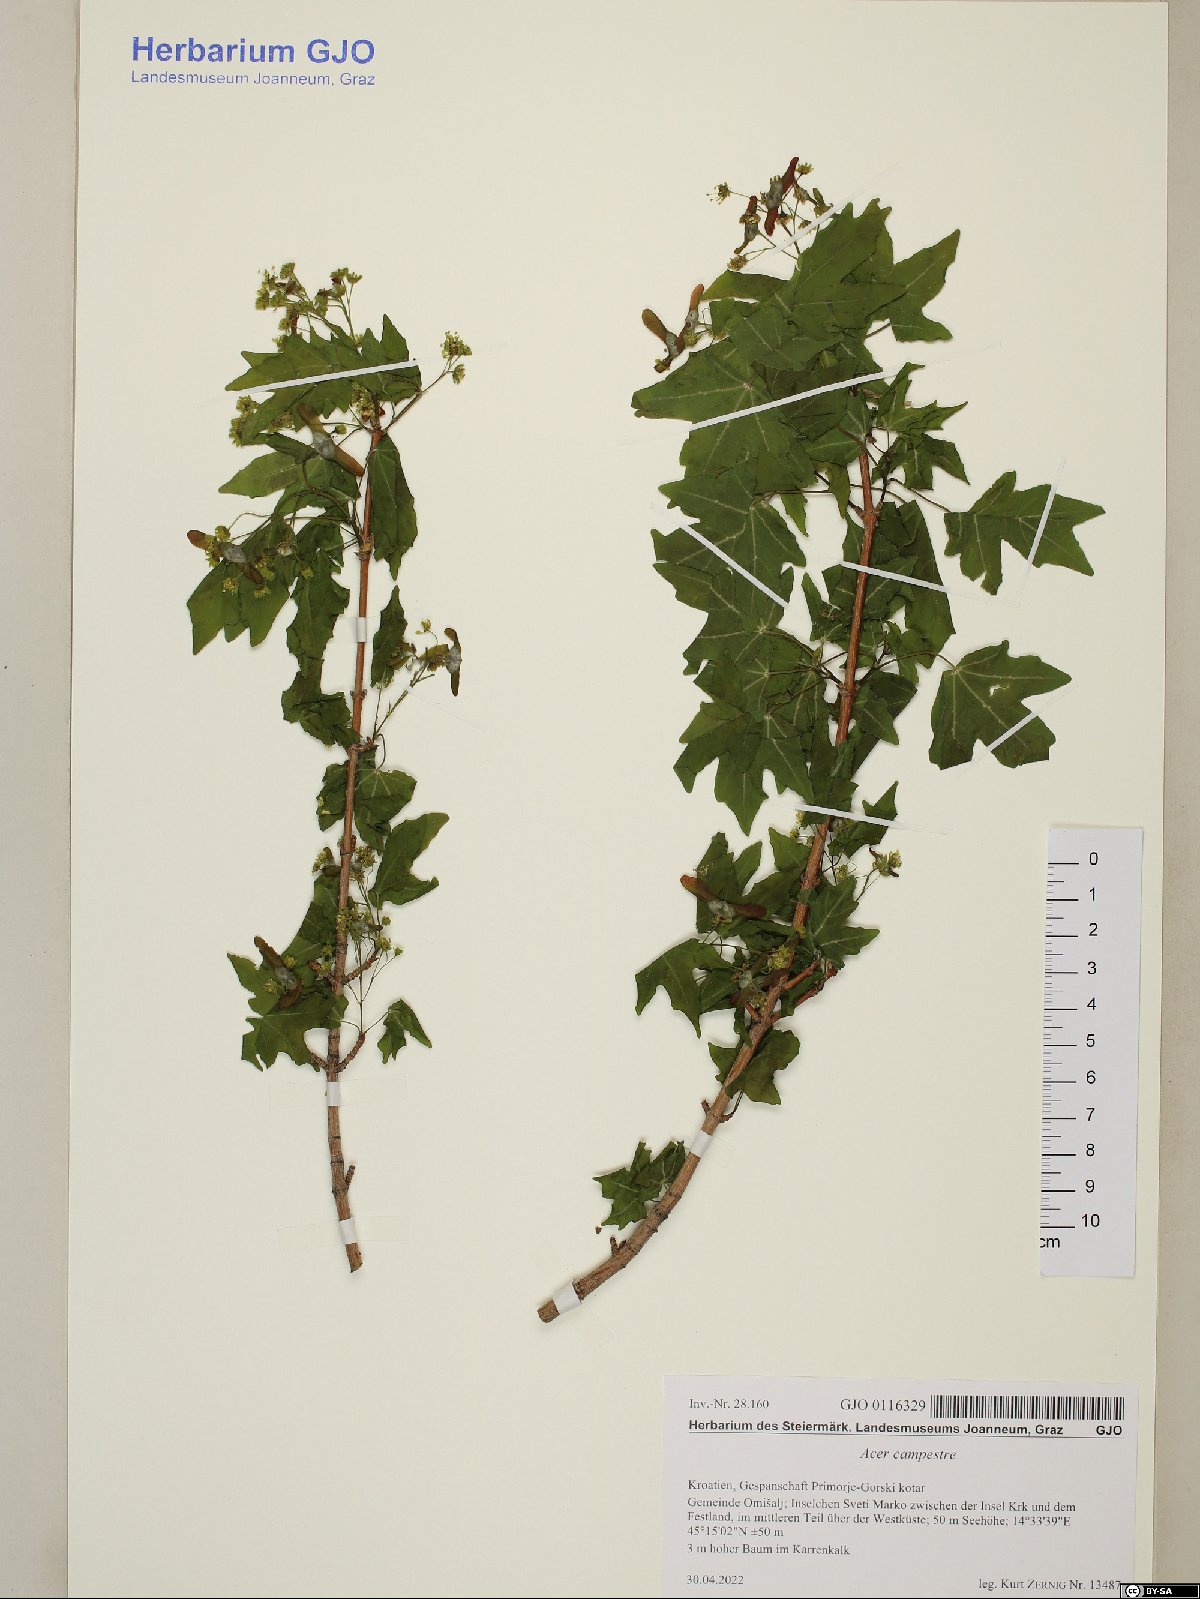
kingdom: Plantae
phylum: Tracheophyta
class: Magnoliopsida
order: Sapindales
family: Sapindaceae
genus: Acer
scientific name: Acer campestre
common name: Field maple
